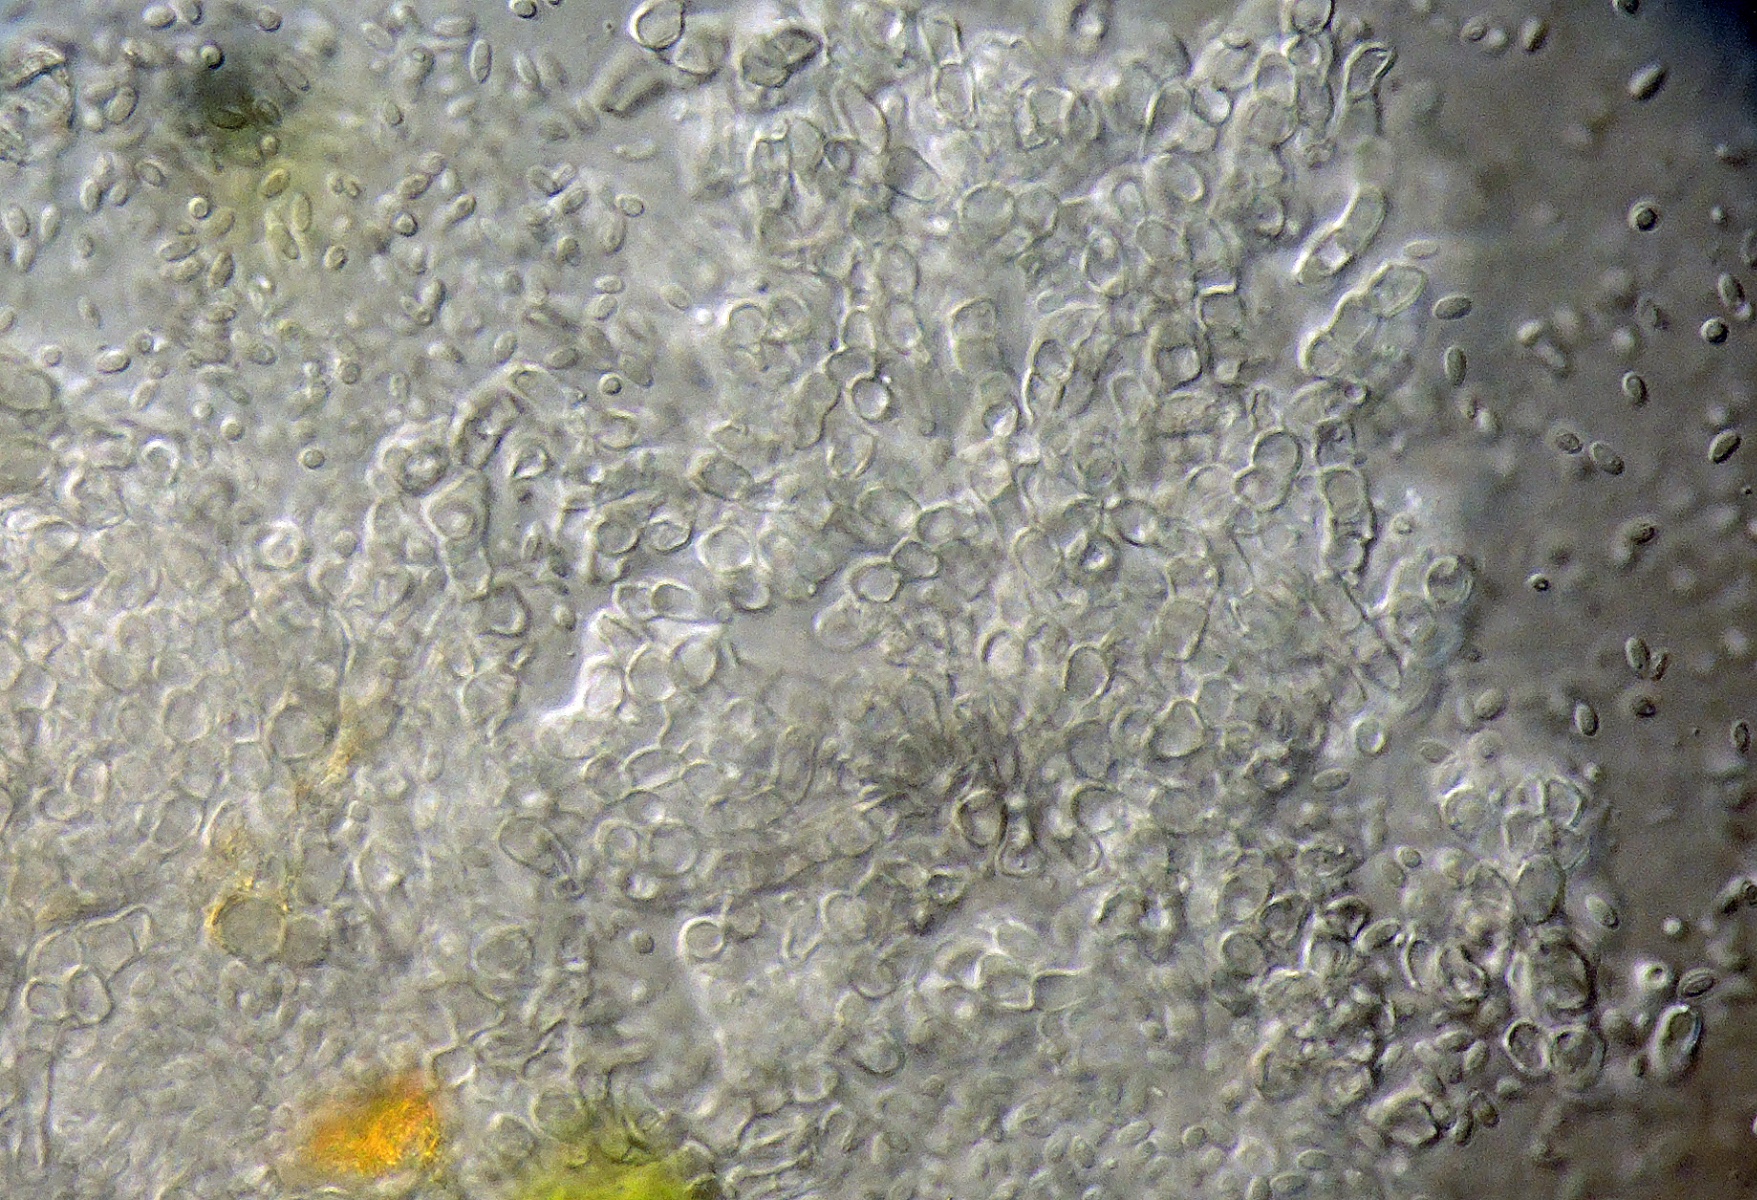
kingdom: Fungi
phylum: Ascomycota
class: Dothideomycetes
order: Pleosporales
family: Phaeosphaeriaceae
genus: Didymocyrtis
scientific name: Didymocyrtis
